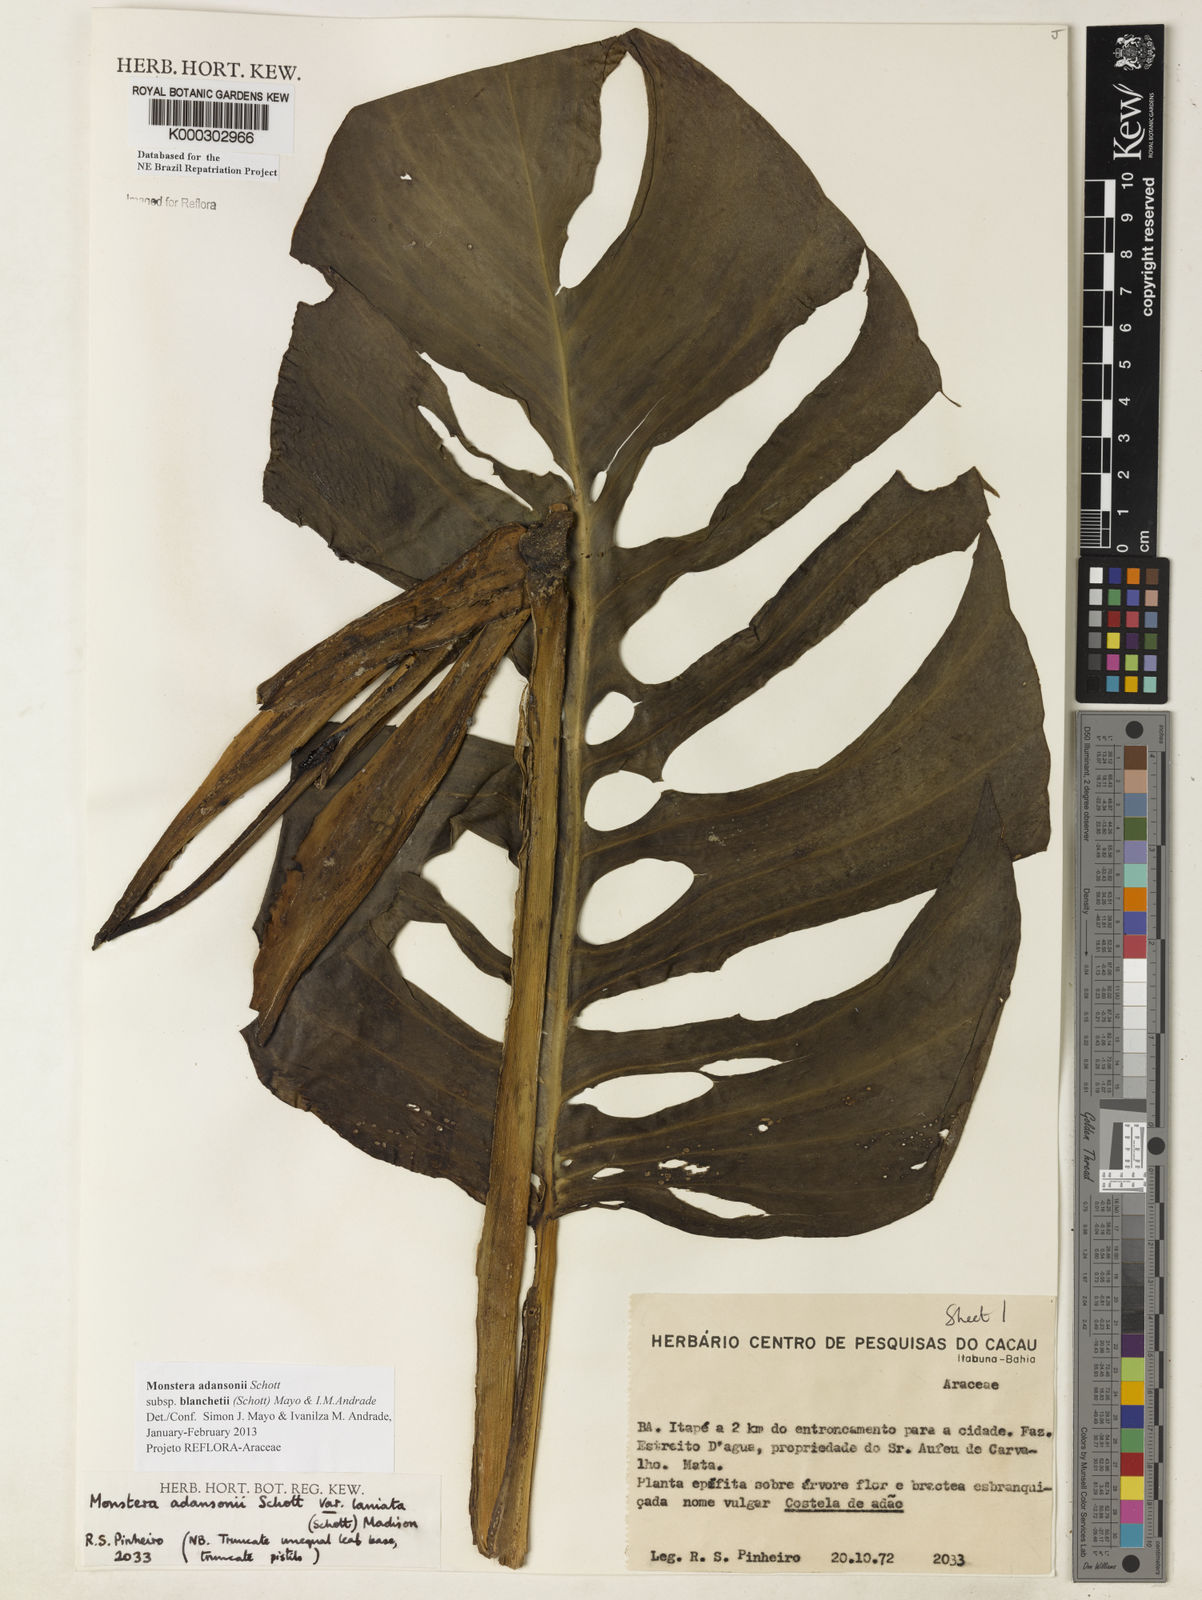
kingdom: Plantae
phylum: Tracheophyta
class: Liliopsida
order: Alismatales
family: Araceae
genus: Monstera
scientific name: Monstera adansonii
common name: Tarovine
